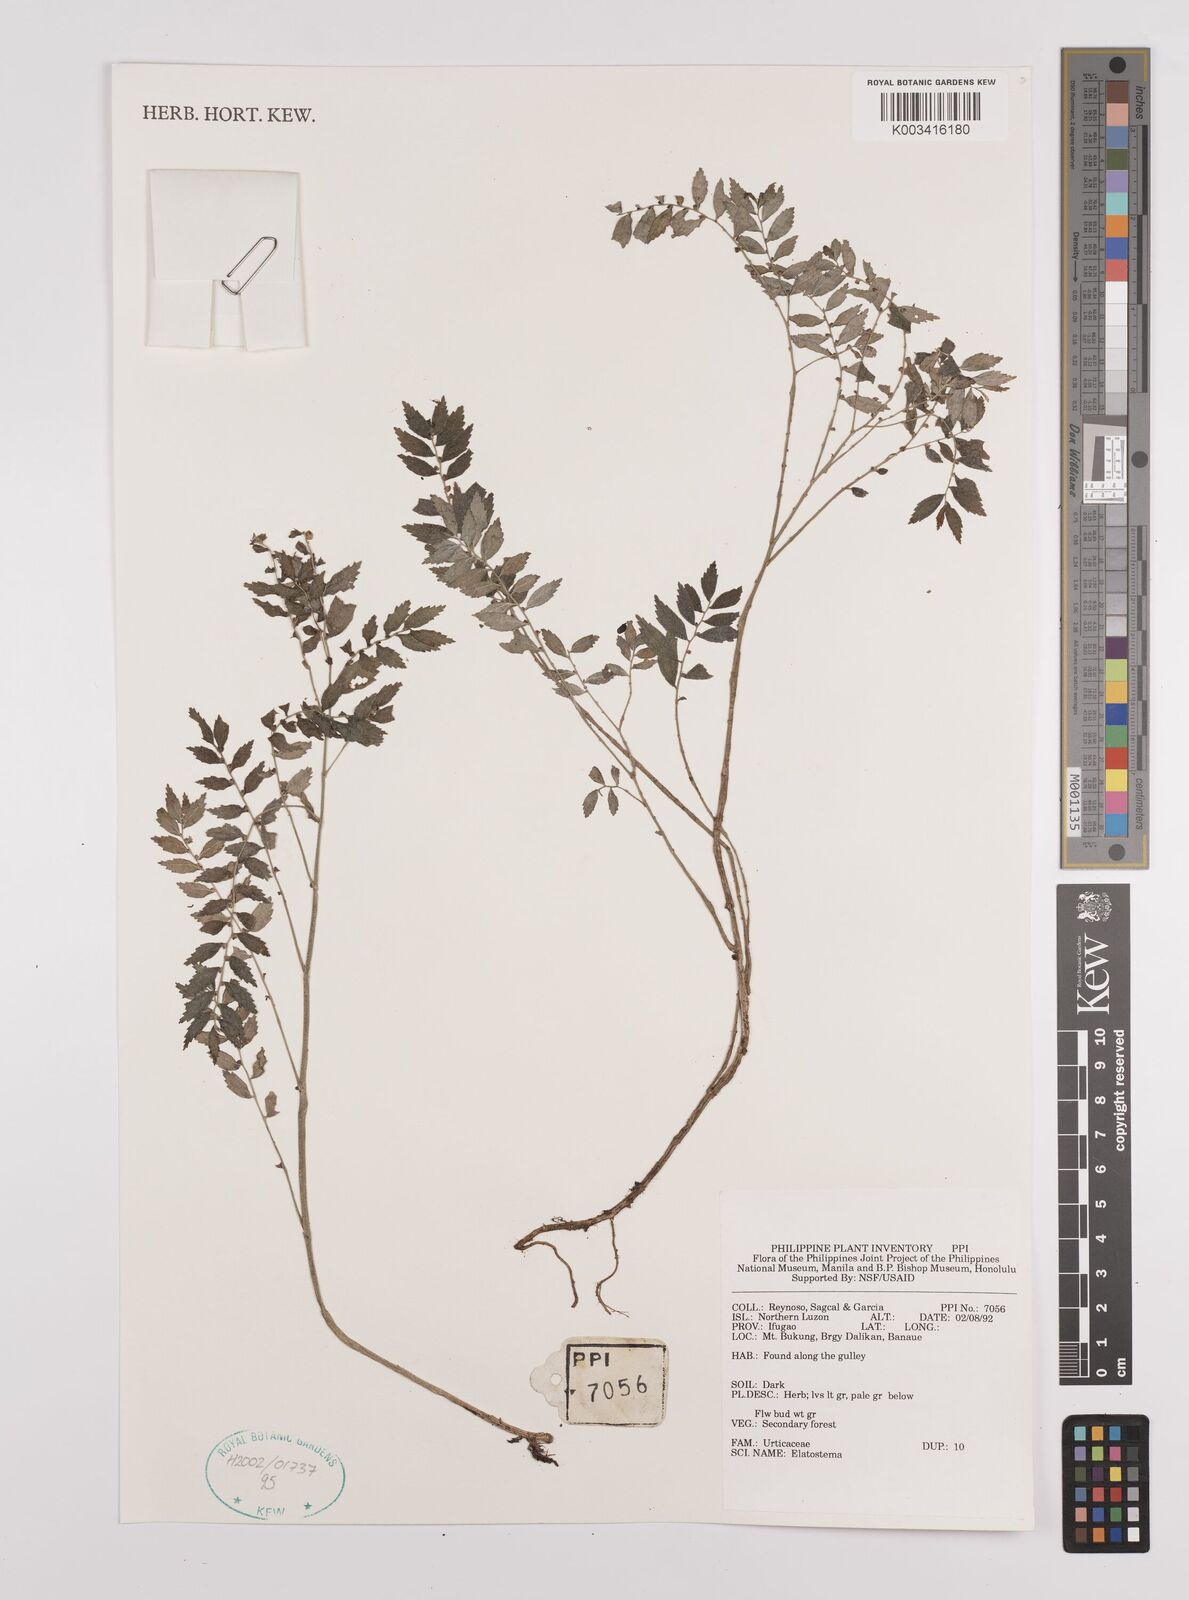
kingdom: Plantae
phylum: Tracheophyta
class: Magnoliopsida
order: Rosales
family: Urticaceae
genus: Elatostema
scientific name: Elatostema
